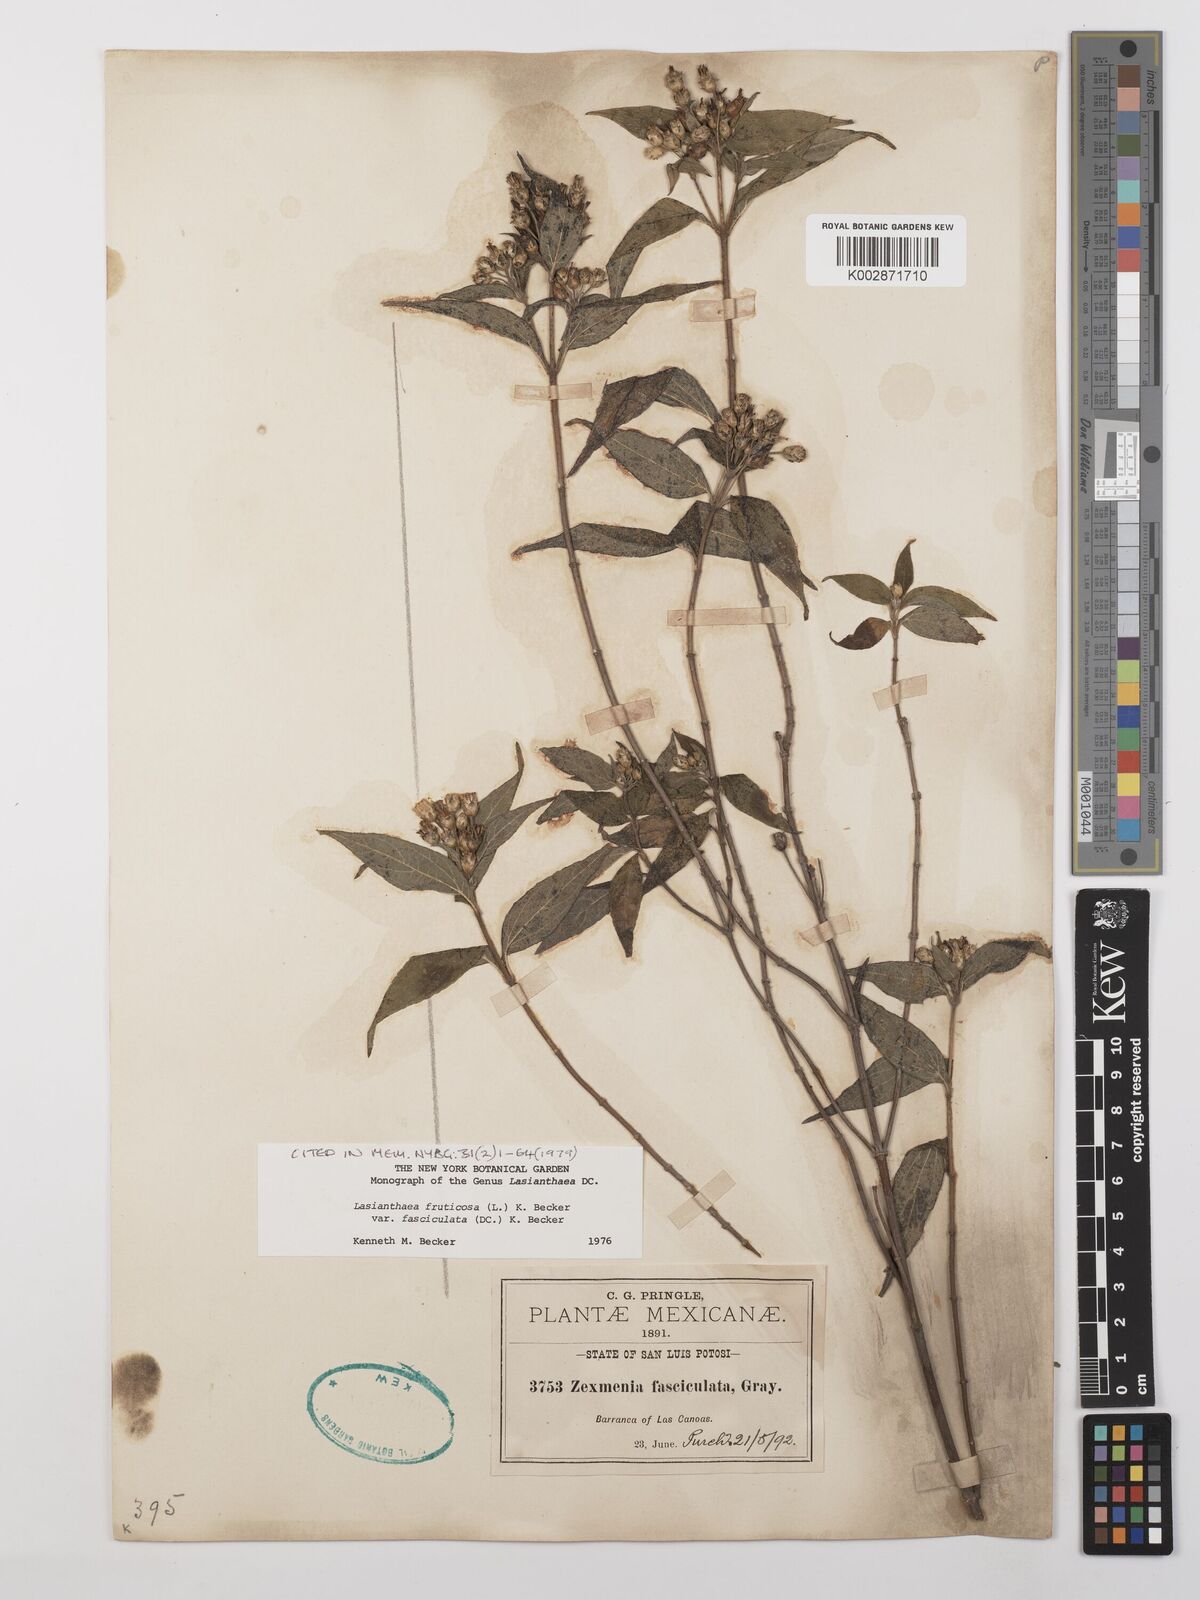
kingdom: Plantae
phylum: Tracheophyta
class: Magnoliopsida
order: Asterales
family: Asteraceae
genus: Lasianthaea
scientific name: Lasianthaea fruticosa
